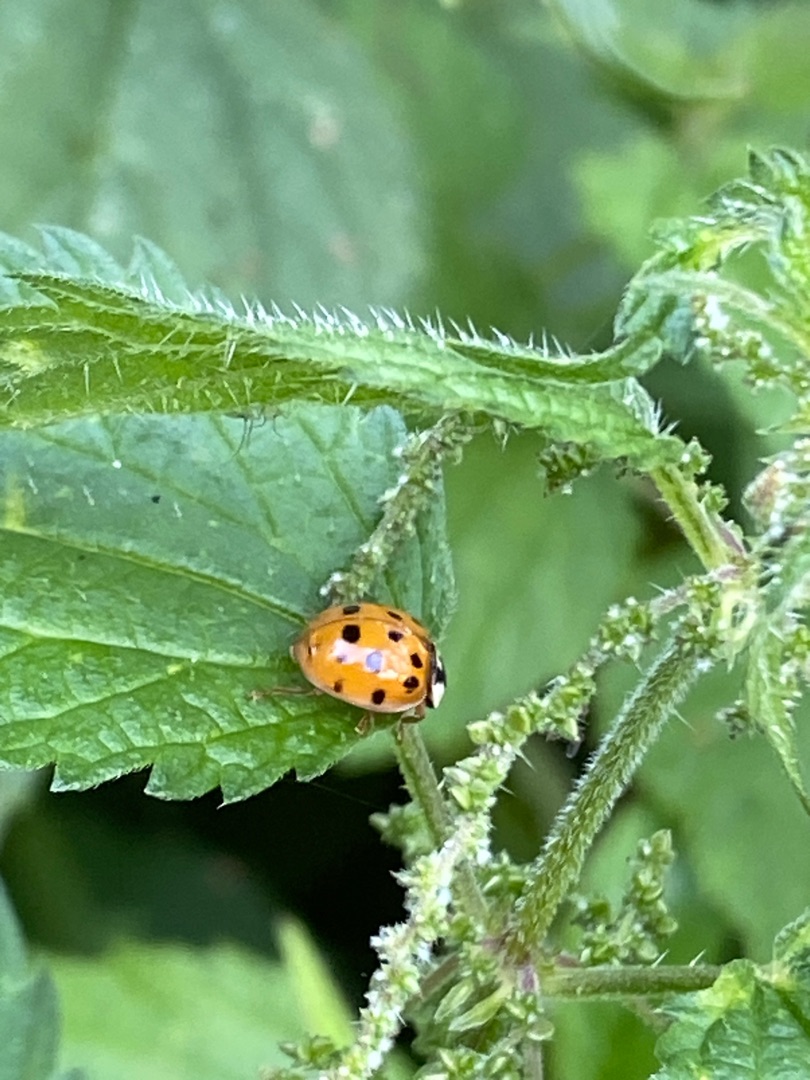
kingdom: Animalia
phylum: Arthropoda
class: Insecta
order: Coleoptera
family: Coccinellidae
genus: Harmonia
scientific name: Harmonia axyridis
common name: Harlekinmariehøne
